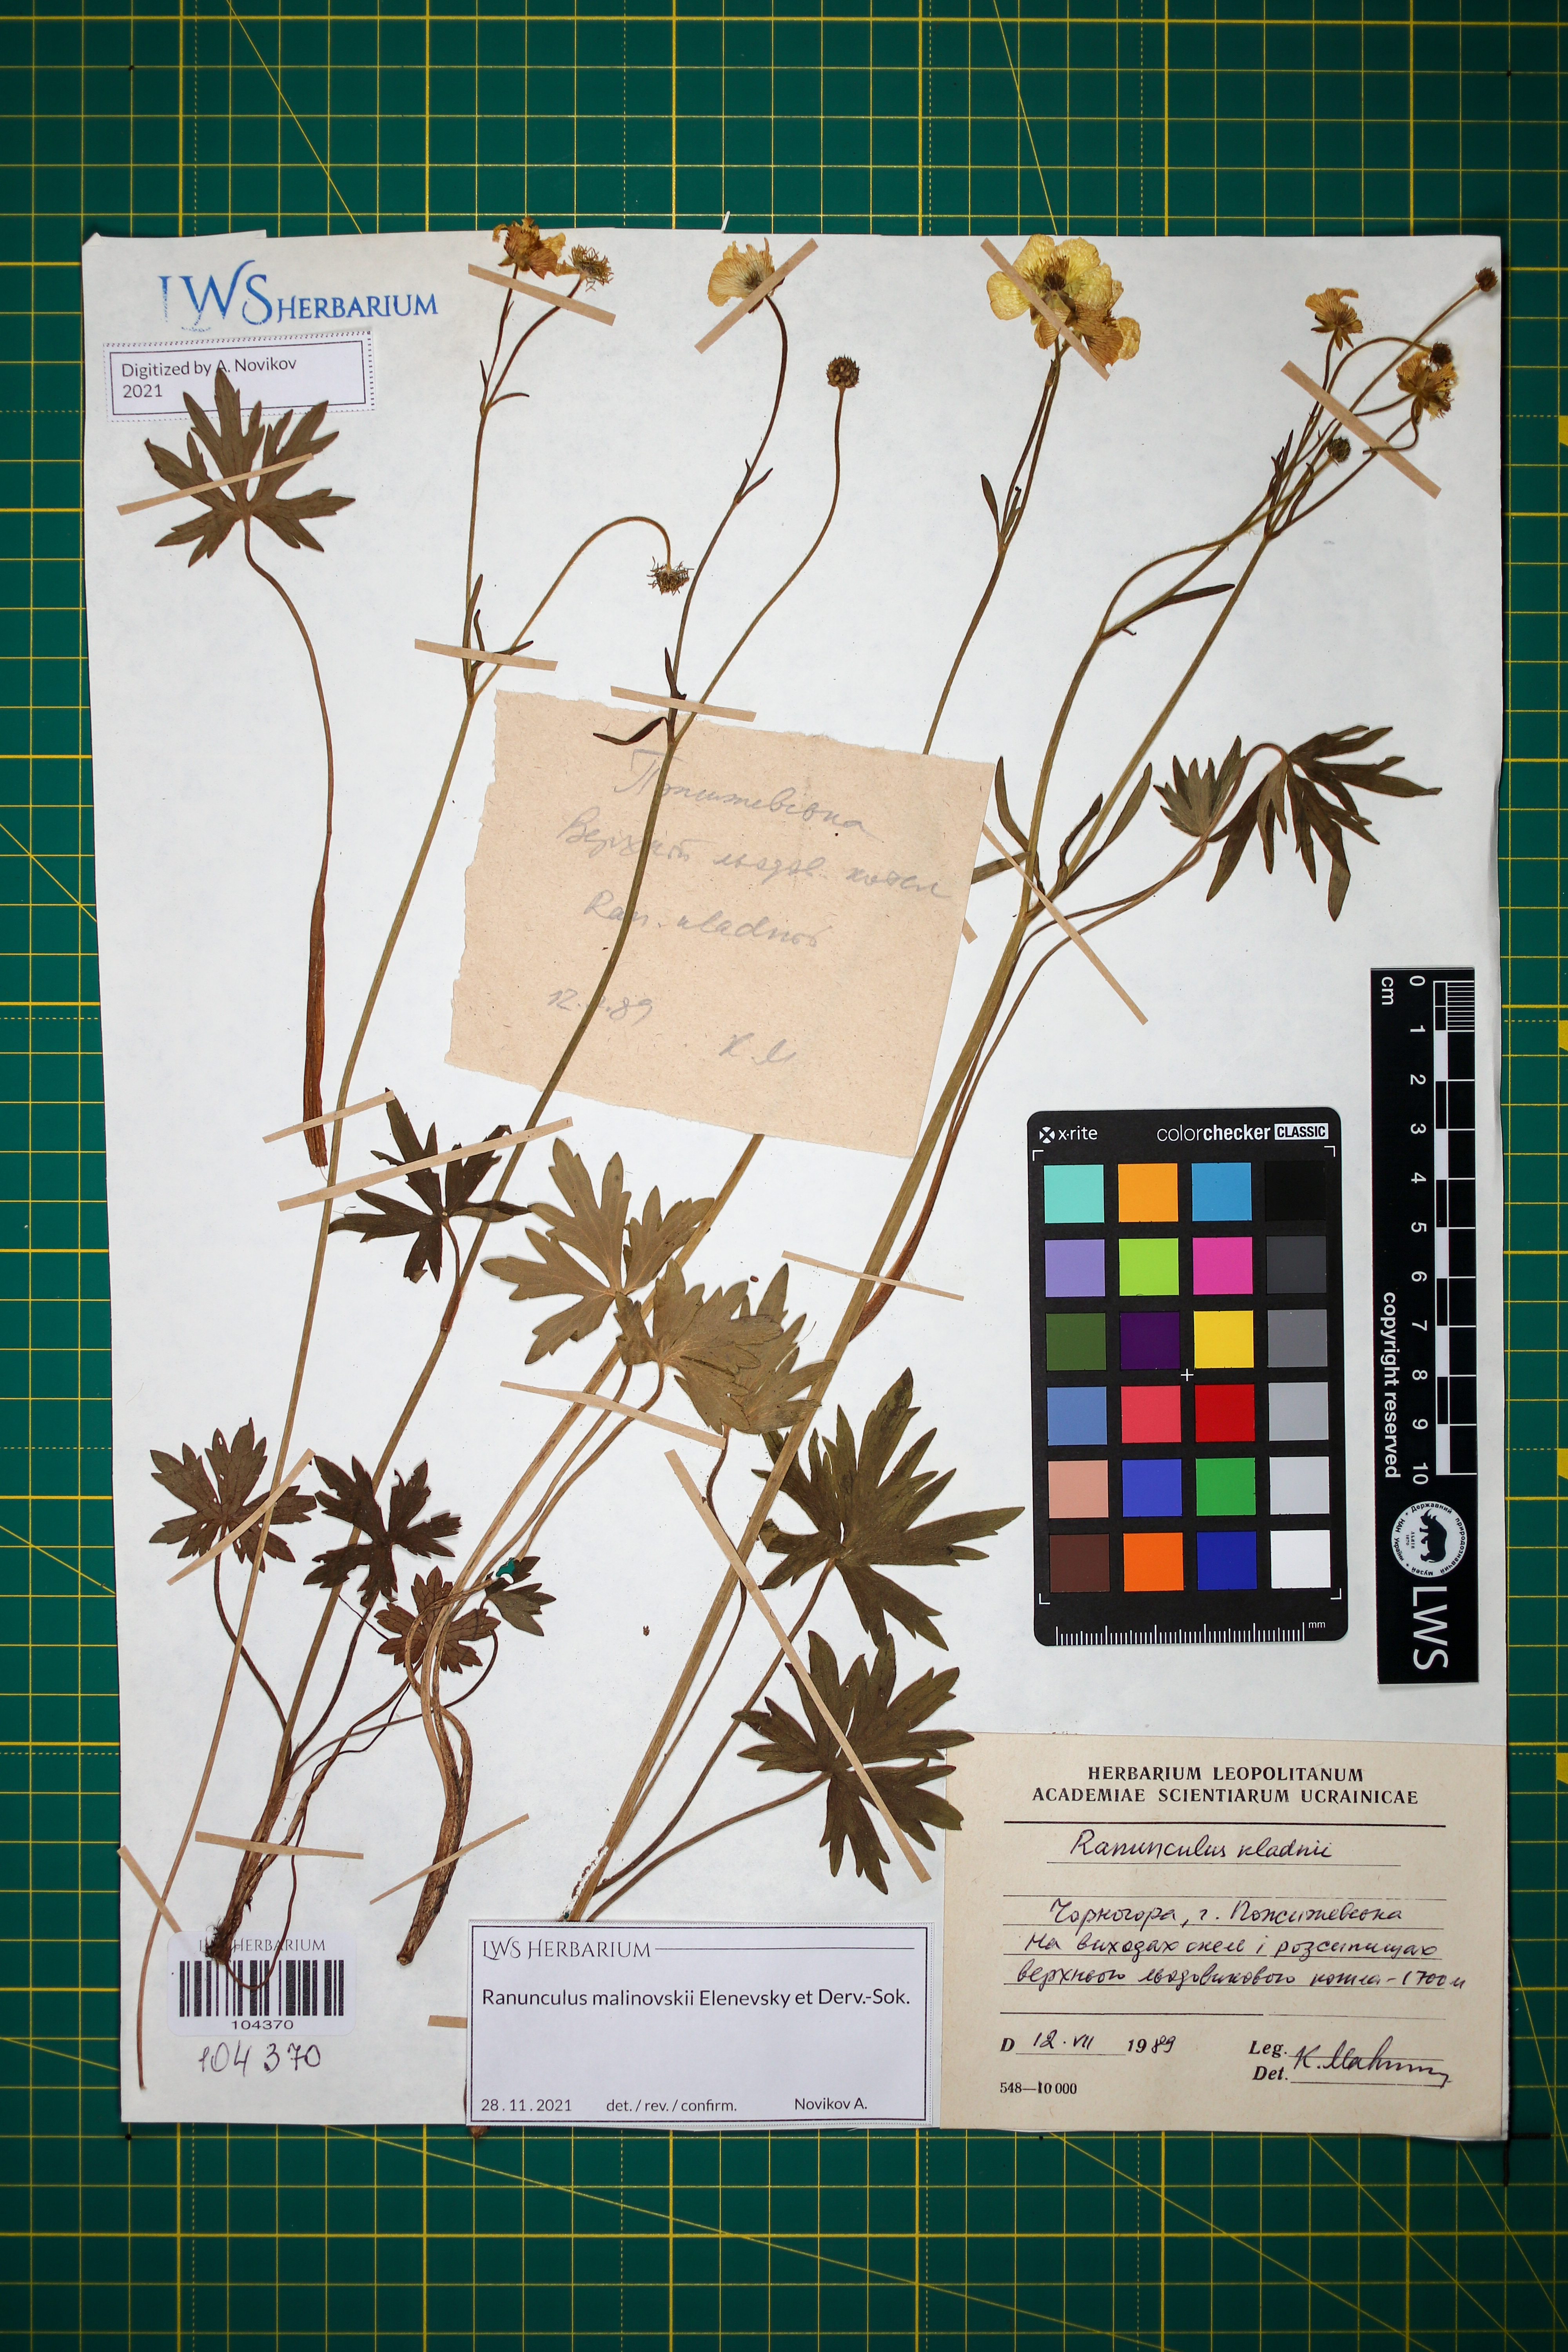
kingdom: Plantae
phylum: Tracheophyta
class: Magnoliopsida
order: Ranunculales
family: Ranunculaceae
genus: Ranunculus
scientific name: Ranunculus malinovskii
